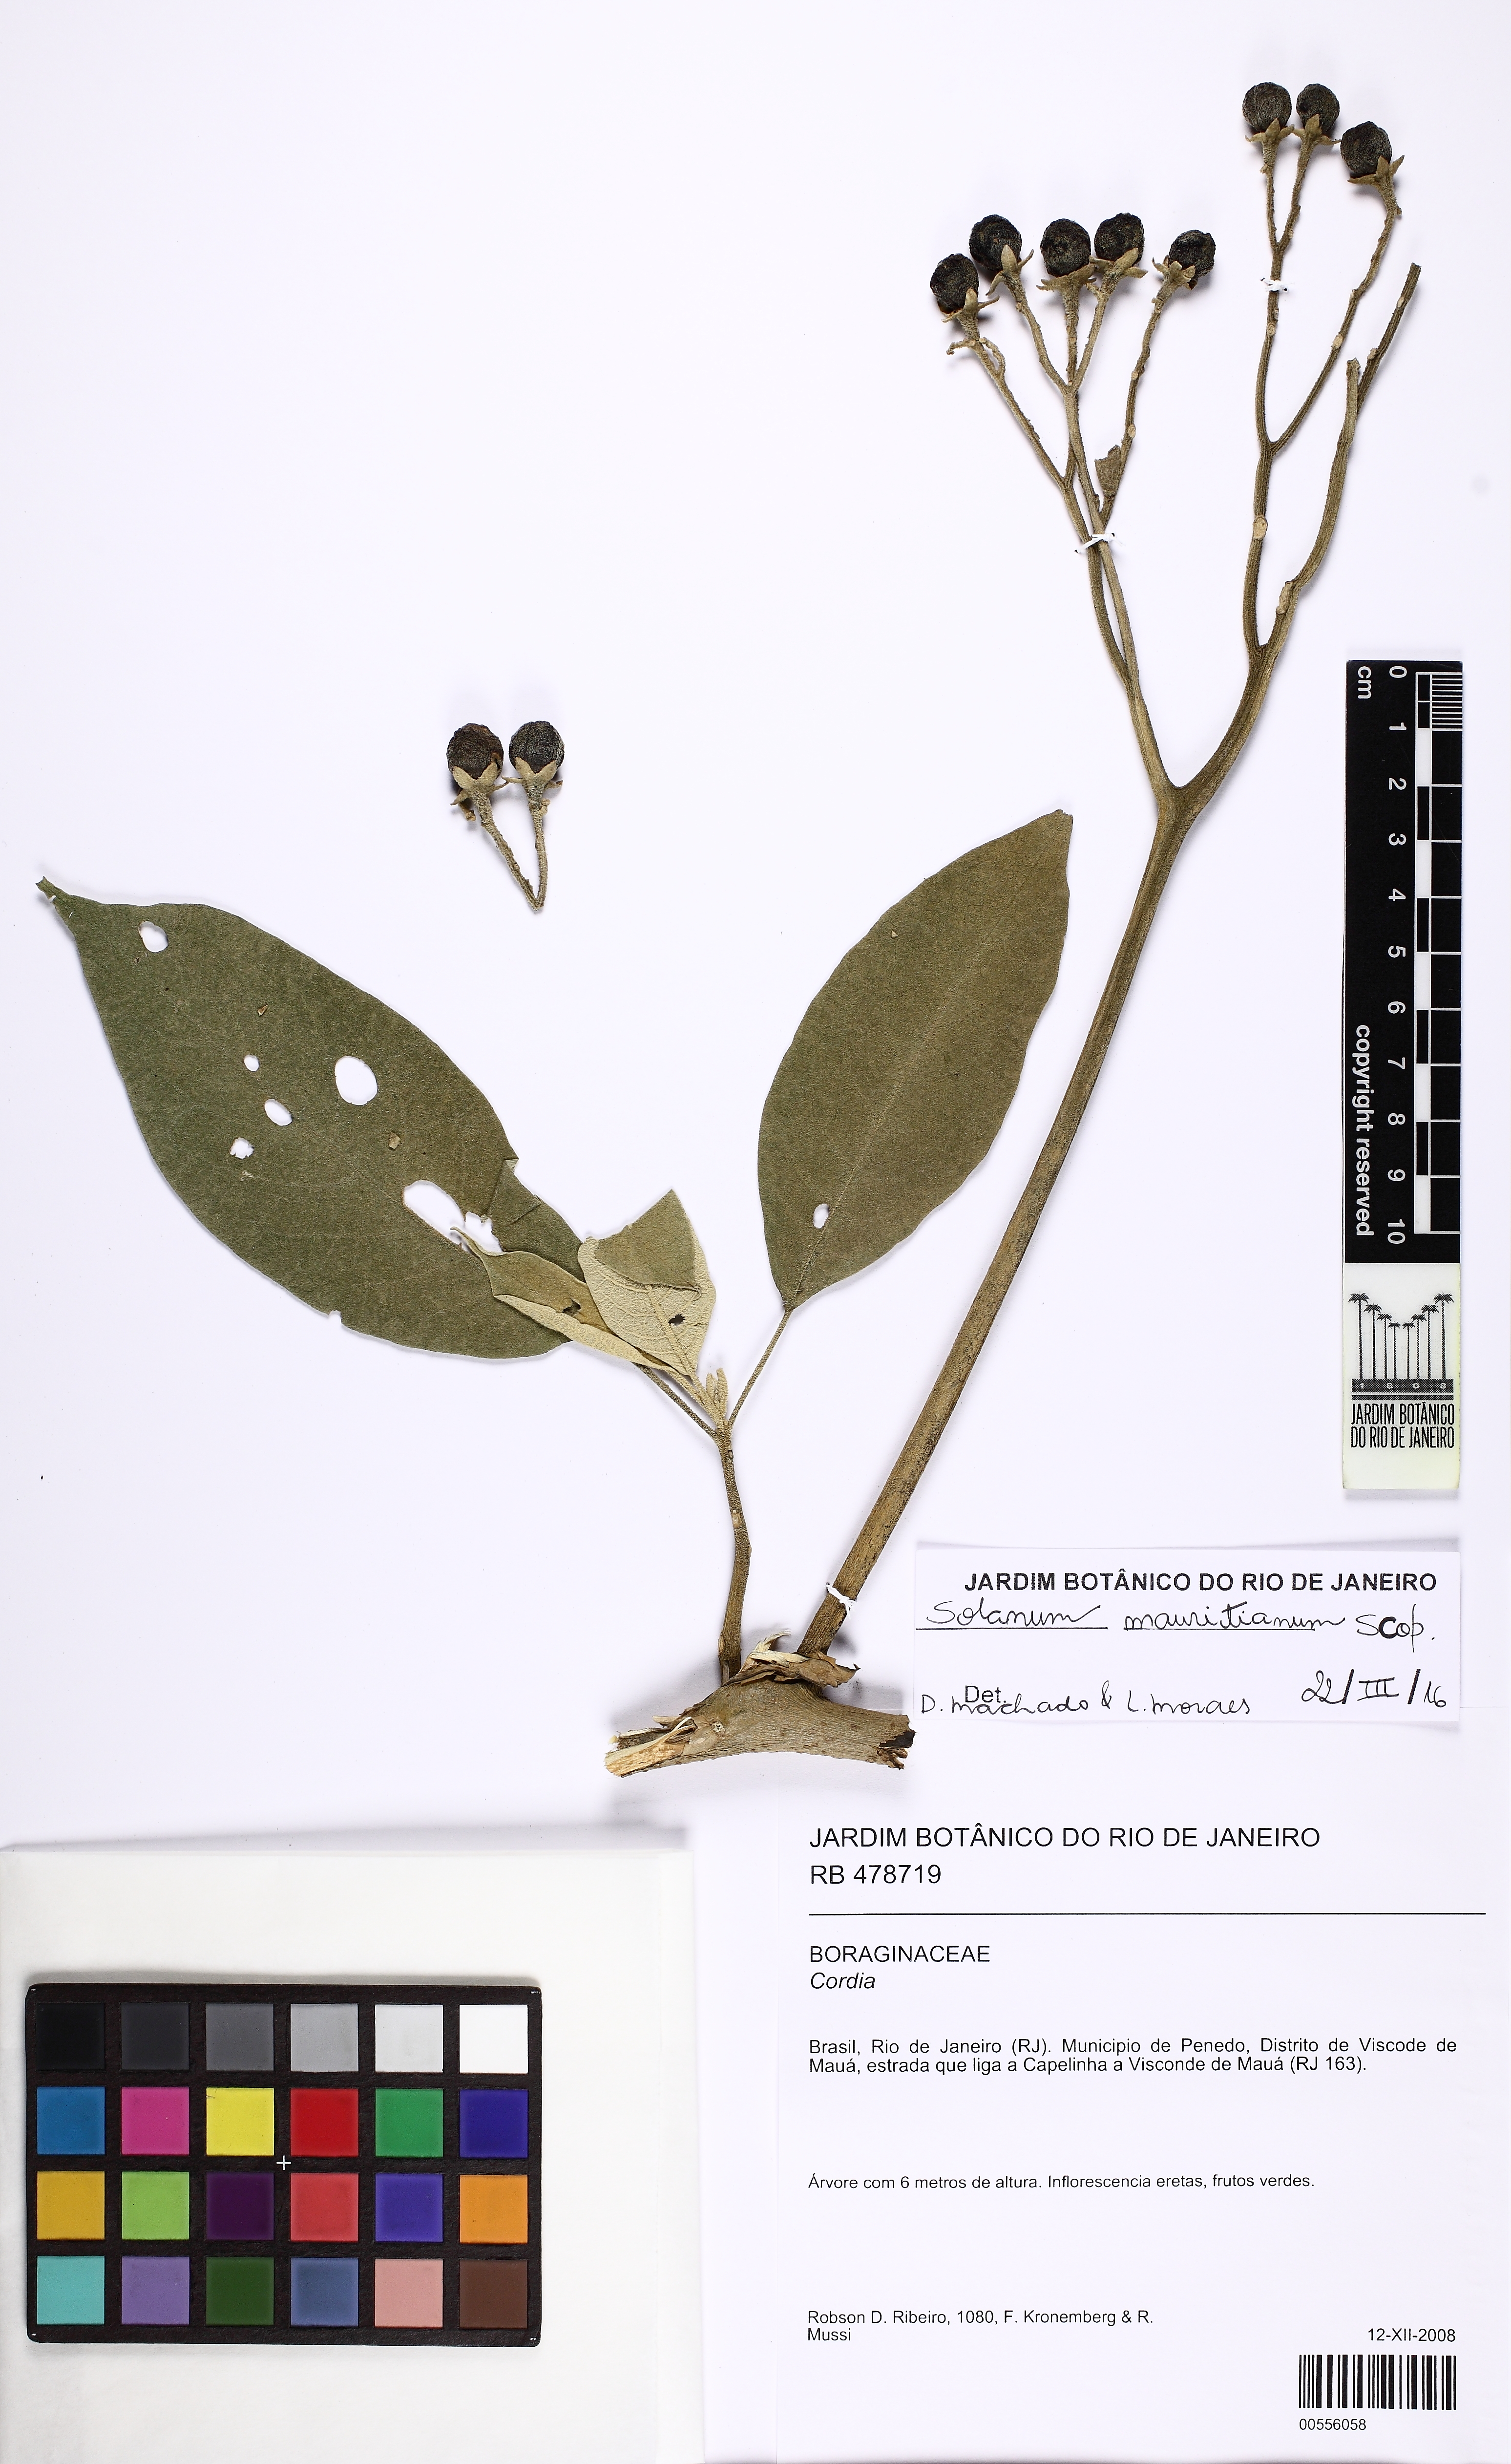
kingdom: Plantae
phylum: Tracheophyta
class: Magnoliopsida
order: Solanales
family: Solanaceae
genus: Solanum
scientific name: Solanum mauritianum
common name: Earleaf nightshade
